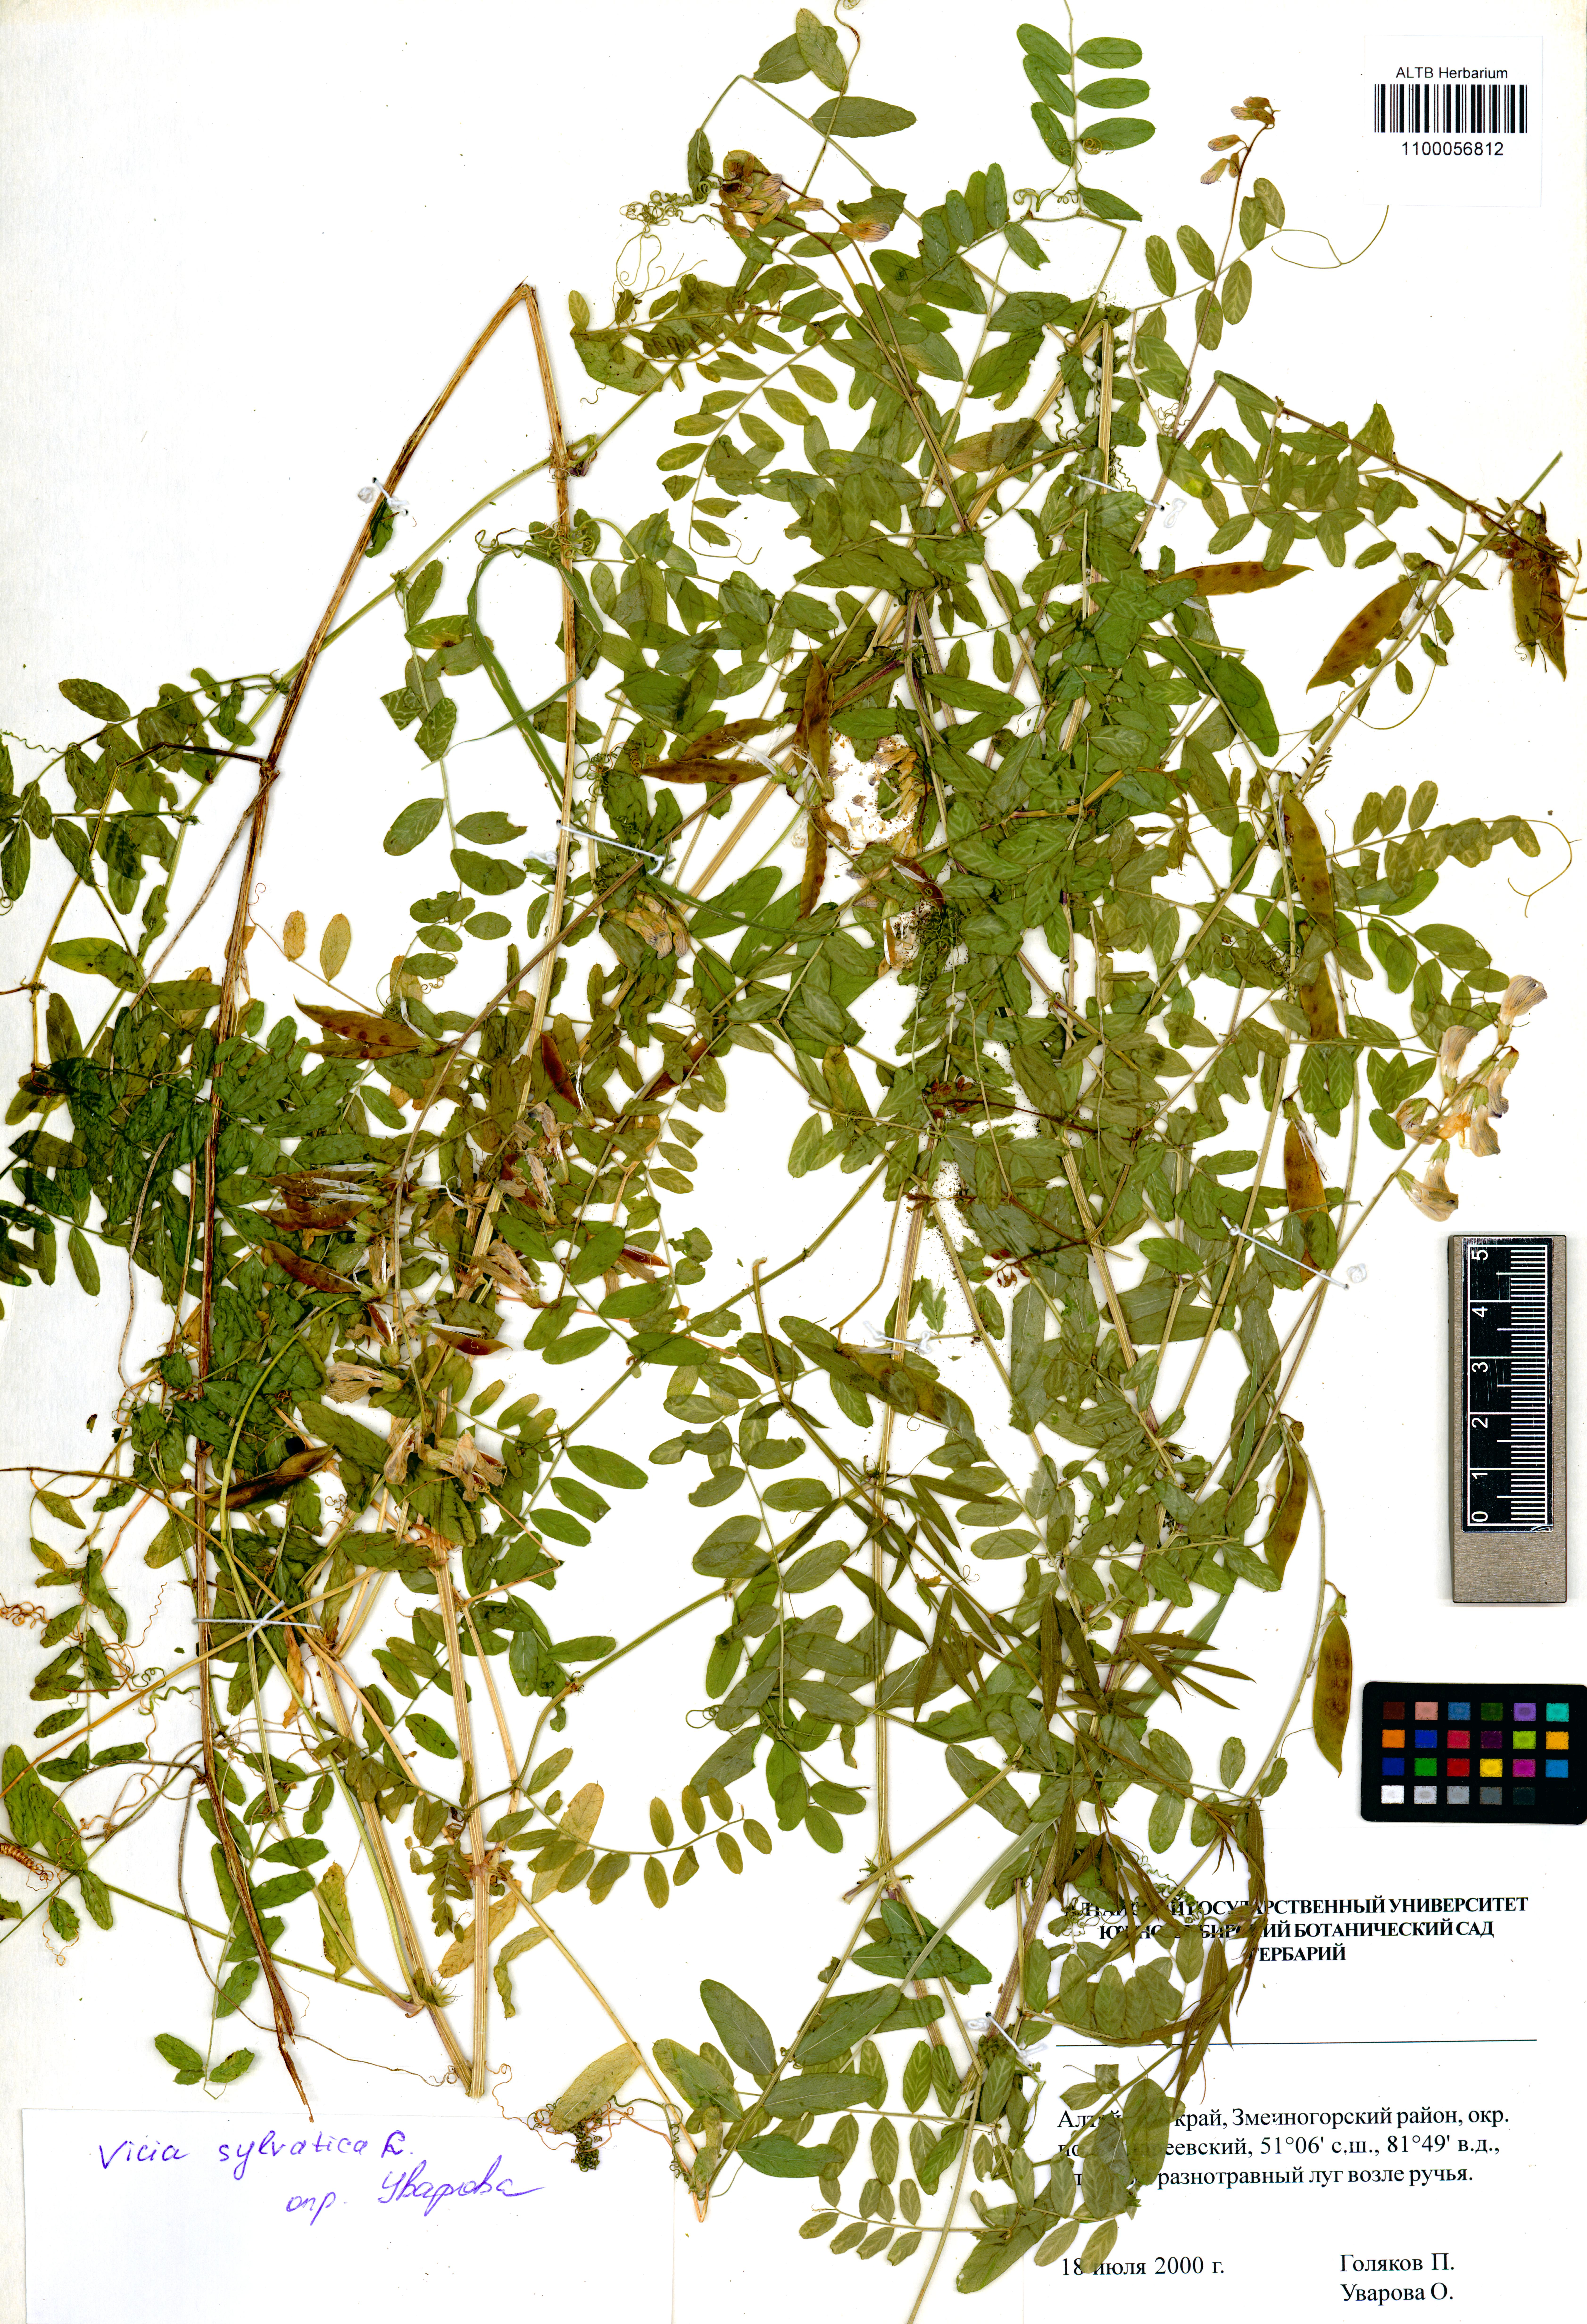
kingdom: Plantae
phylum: Tracheophyta
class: Magnoliopsida
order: Fabales
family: Fabaceae
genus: Vicia
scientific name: Vicia sylvatica
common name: Wood vetch
